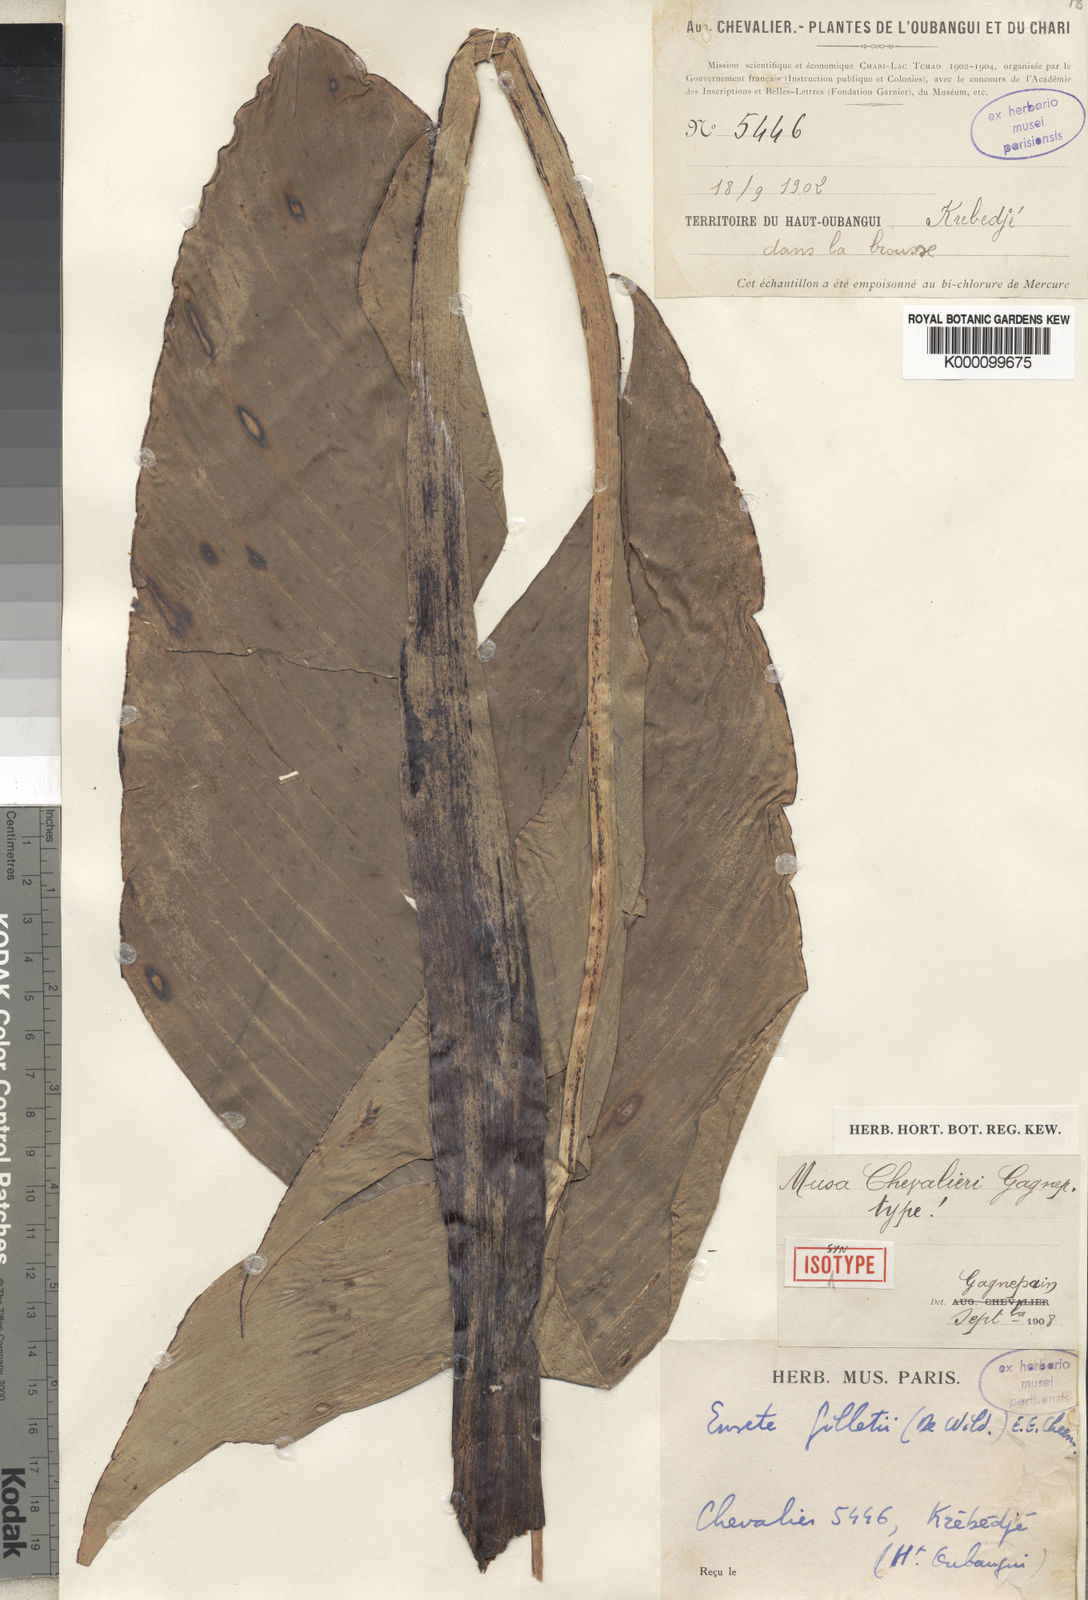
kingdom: Plantae
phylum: Tracheophyta
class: Liliopsida
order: Zingiberales
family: Musaceae
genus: Ensete
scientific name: Ensete livingstonianum
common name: Livingston's banana
